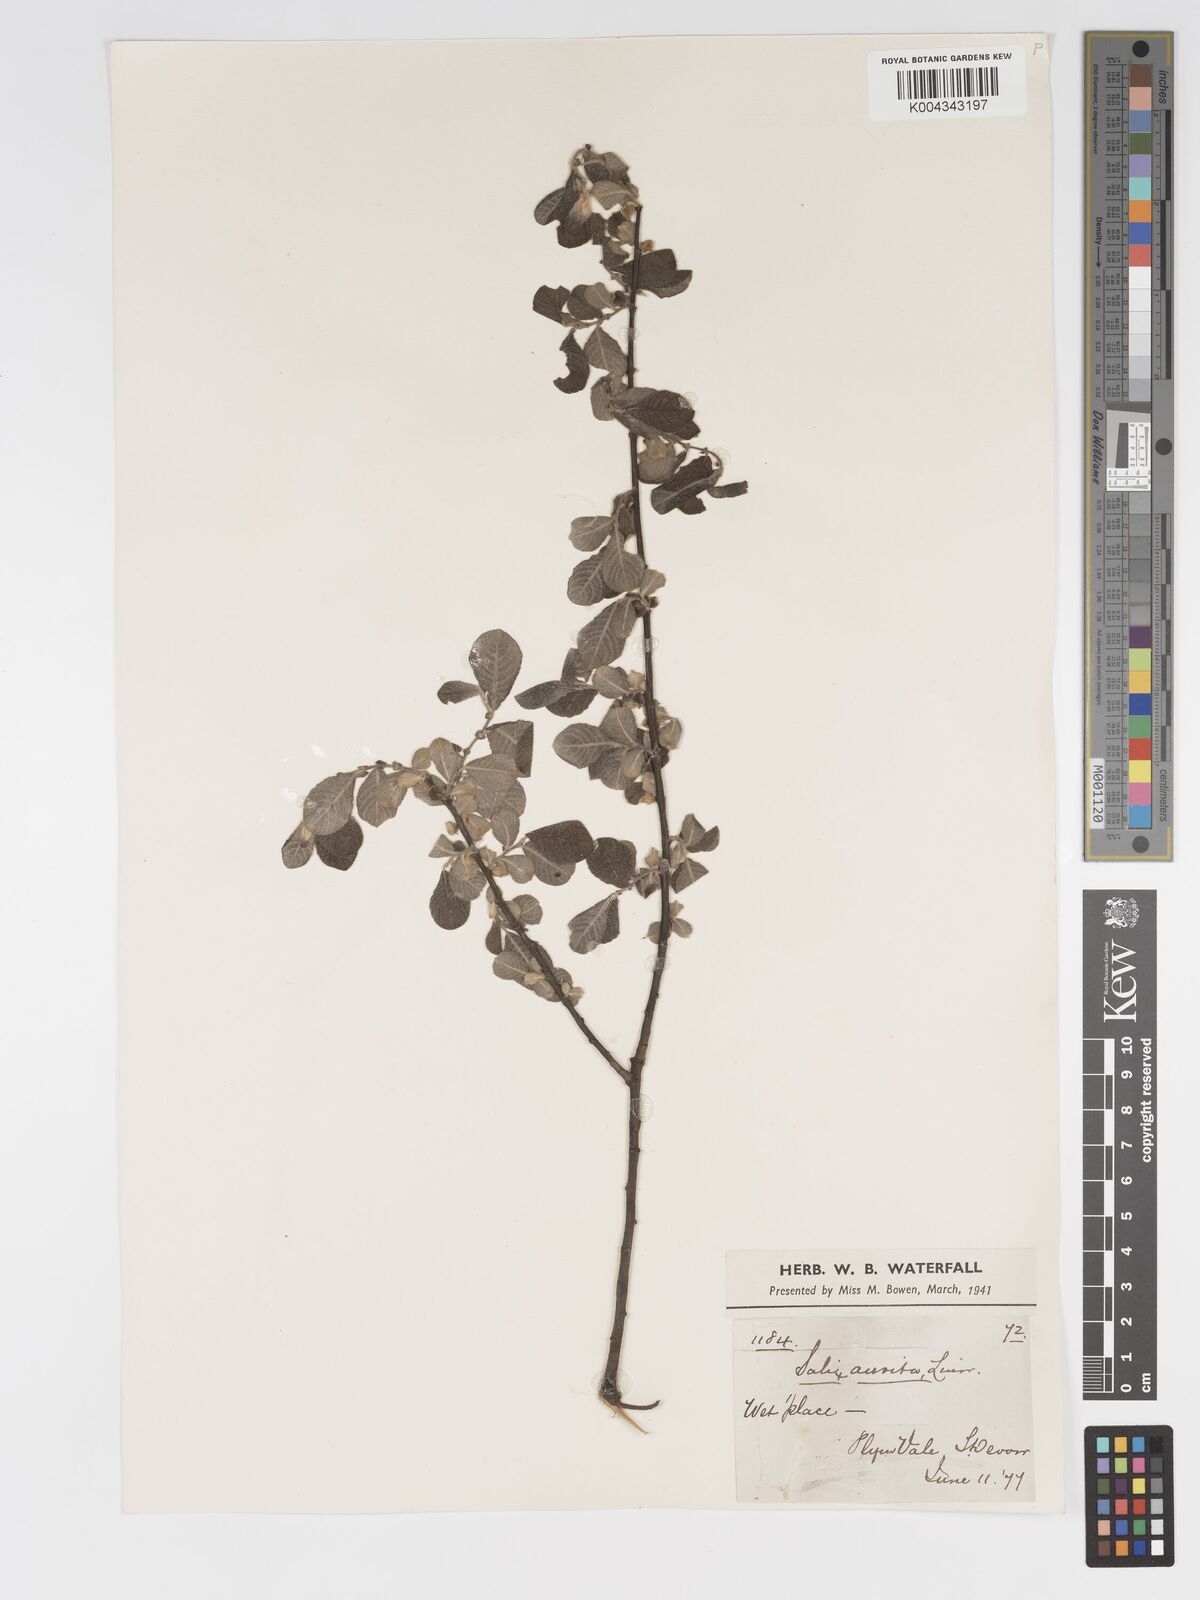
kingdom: Plantae
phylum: Tracheophyta
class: Magnoliopsida
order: Malpighiales
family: Salicaceae
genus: Salix
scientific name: Salix aurita
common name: Eared willow
